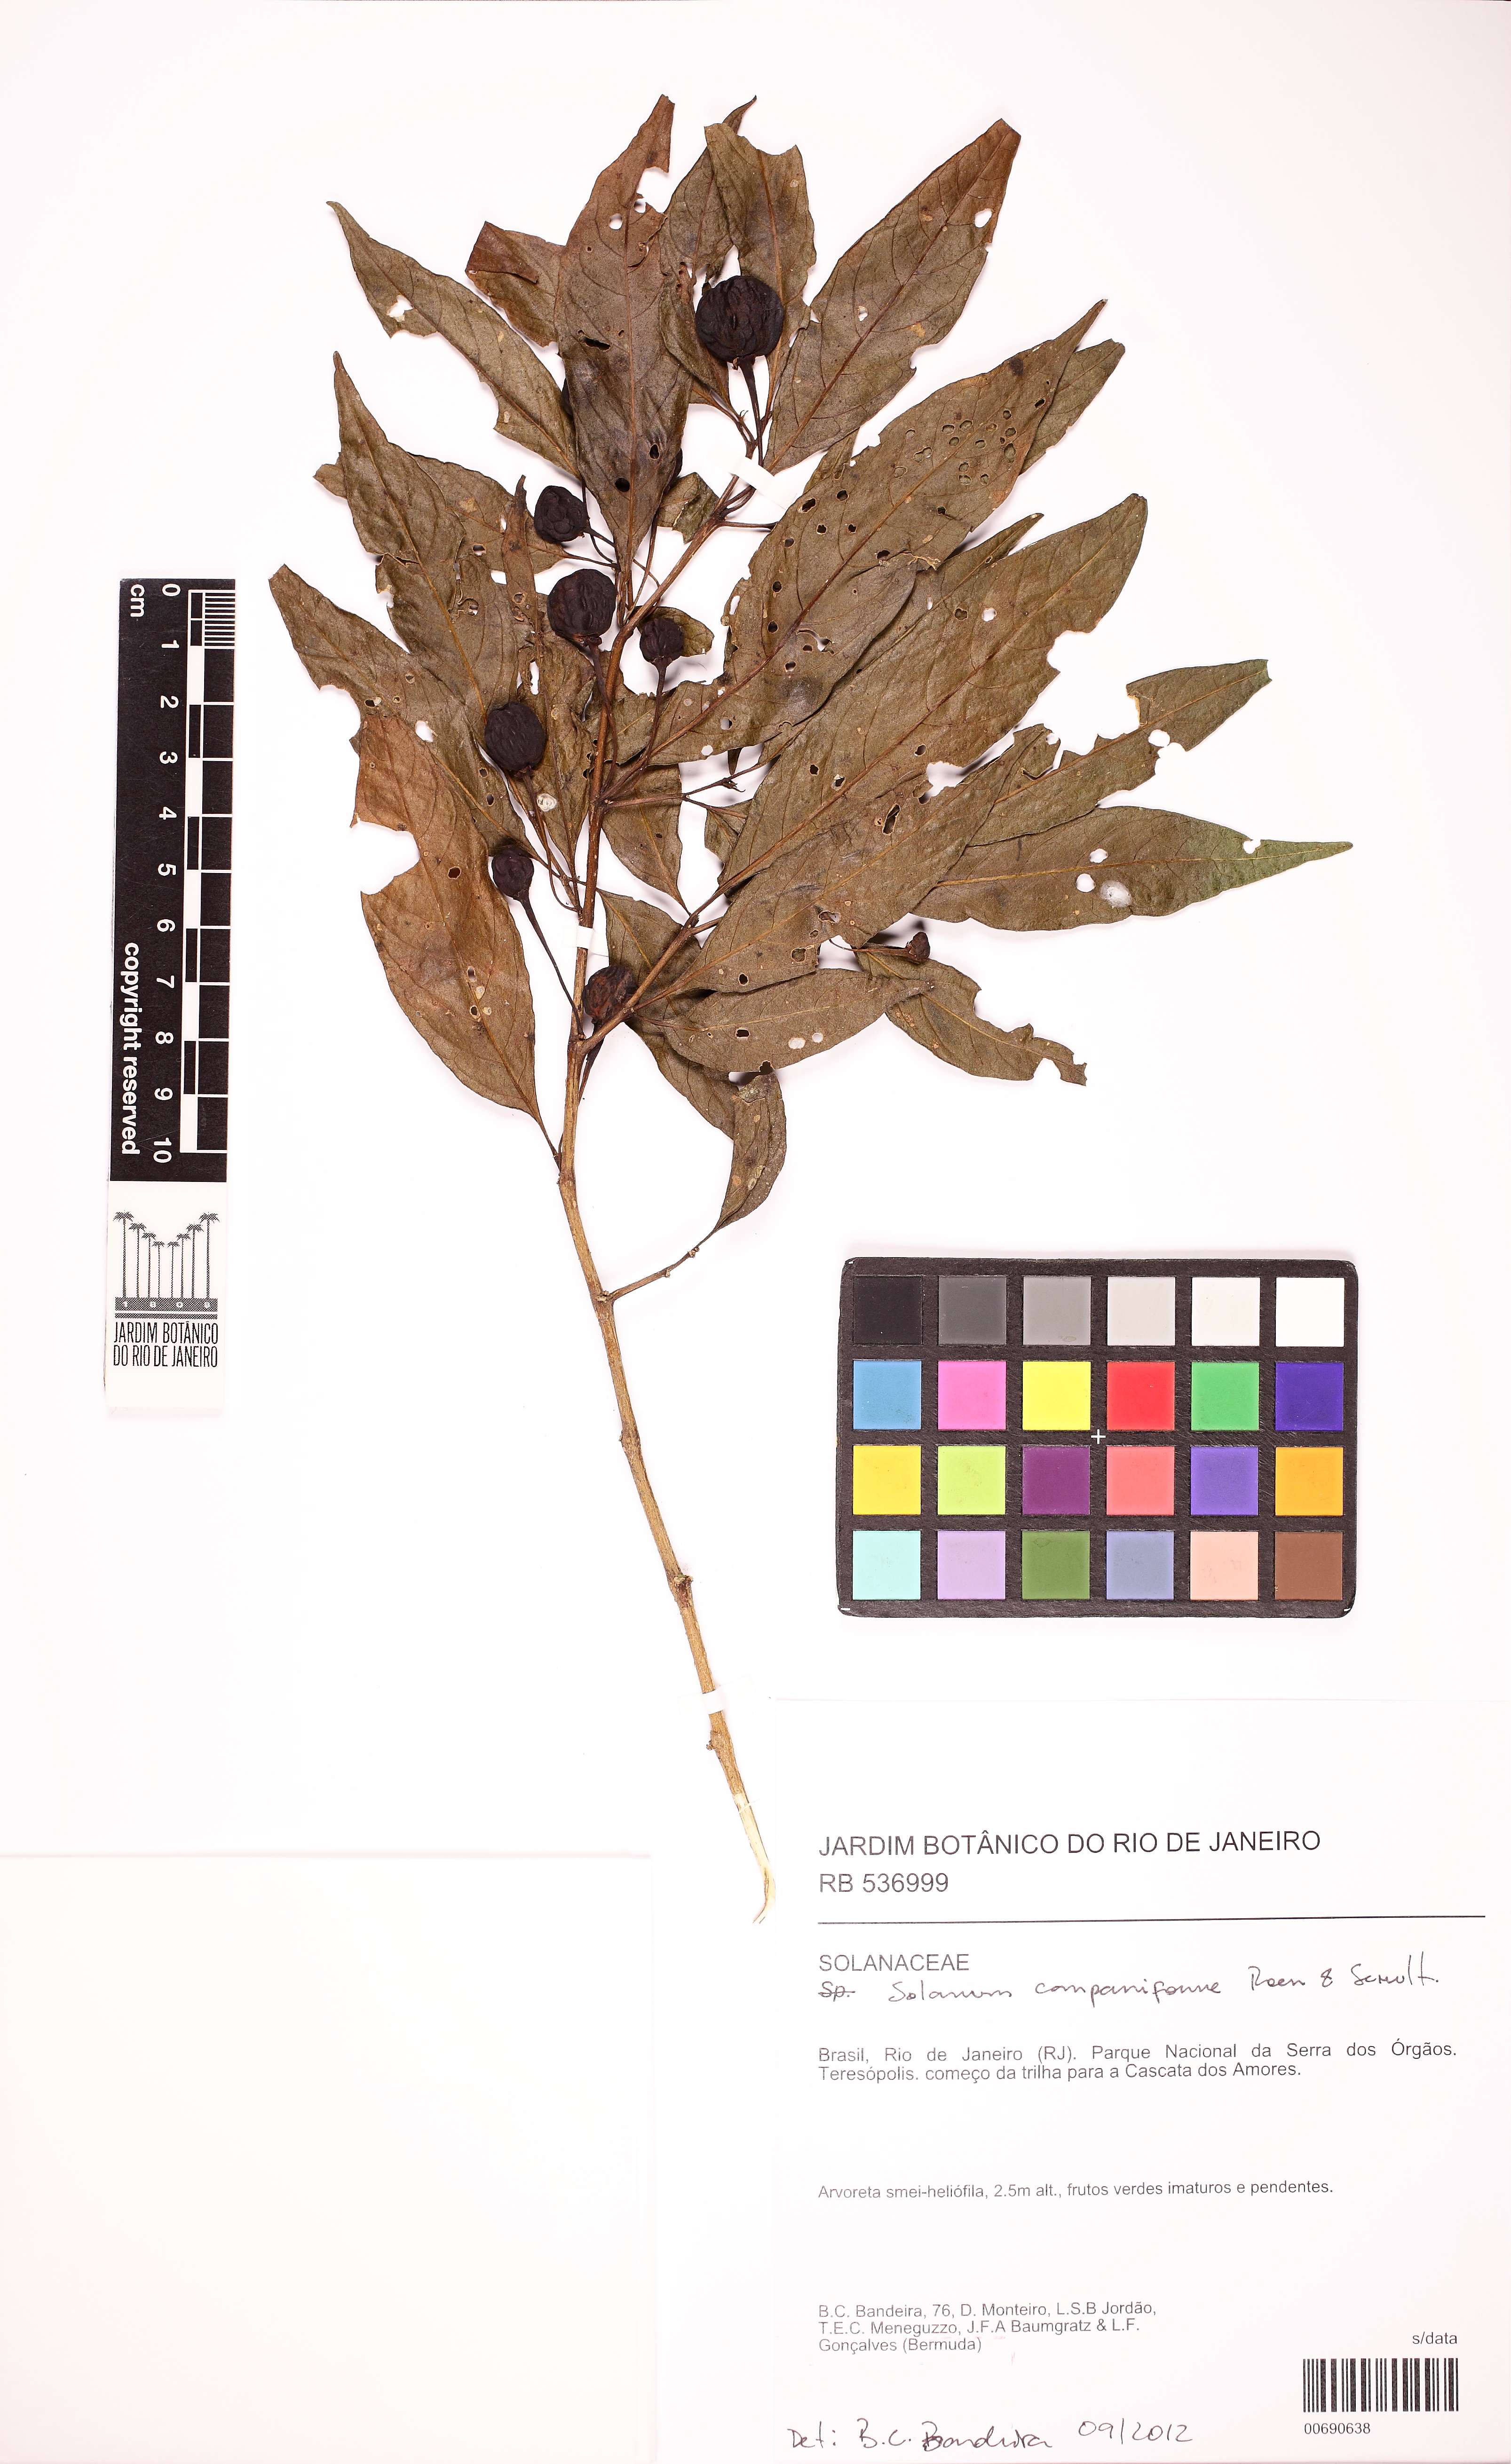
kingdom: Plantae
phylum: Tracheophyta
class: Magnoliopsida
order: Solanales
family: Solanaceae
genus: Solanum
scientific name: Solanum campaniforme
